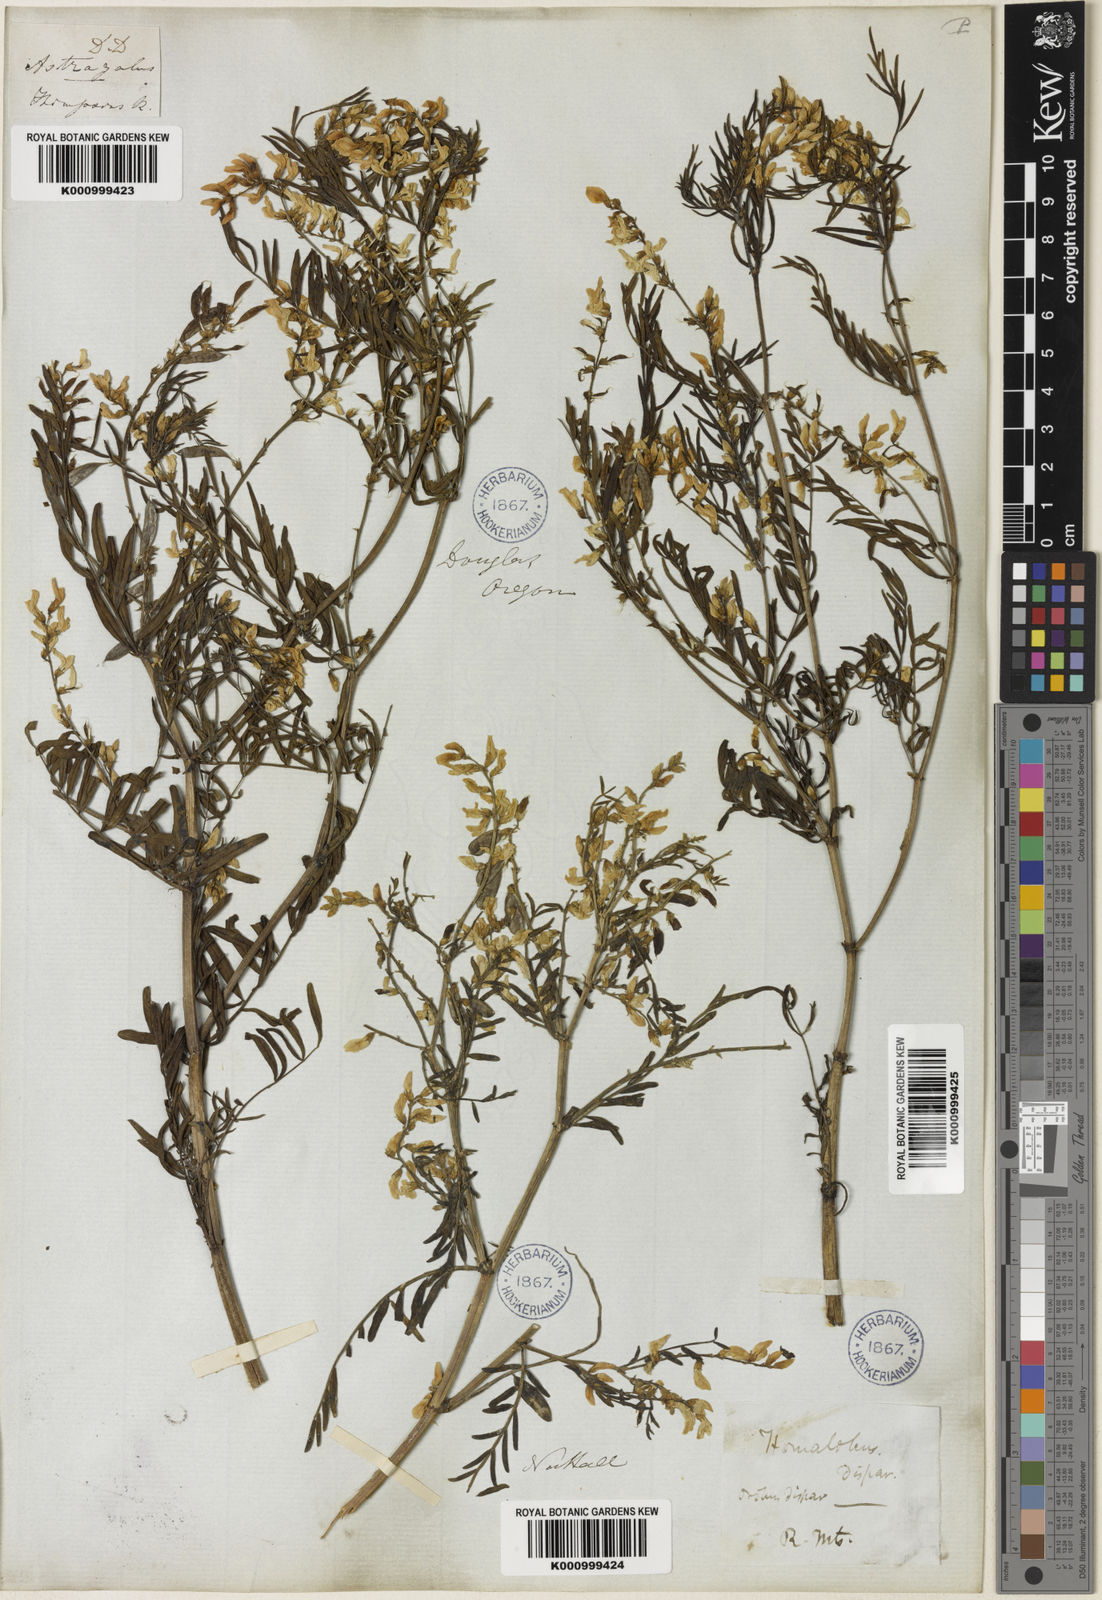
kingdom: Plantae
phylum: Tracheophyta
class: Magnoliopsida
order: Fabales
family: Fabaceae
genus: Astragalus
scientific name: Astragalus tenellus
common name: Pulse milk-vetch
